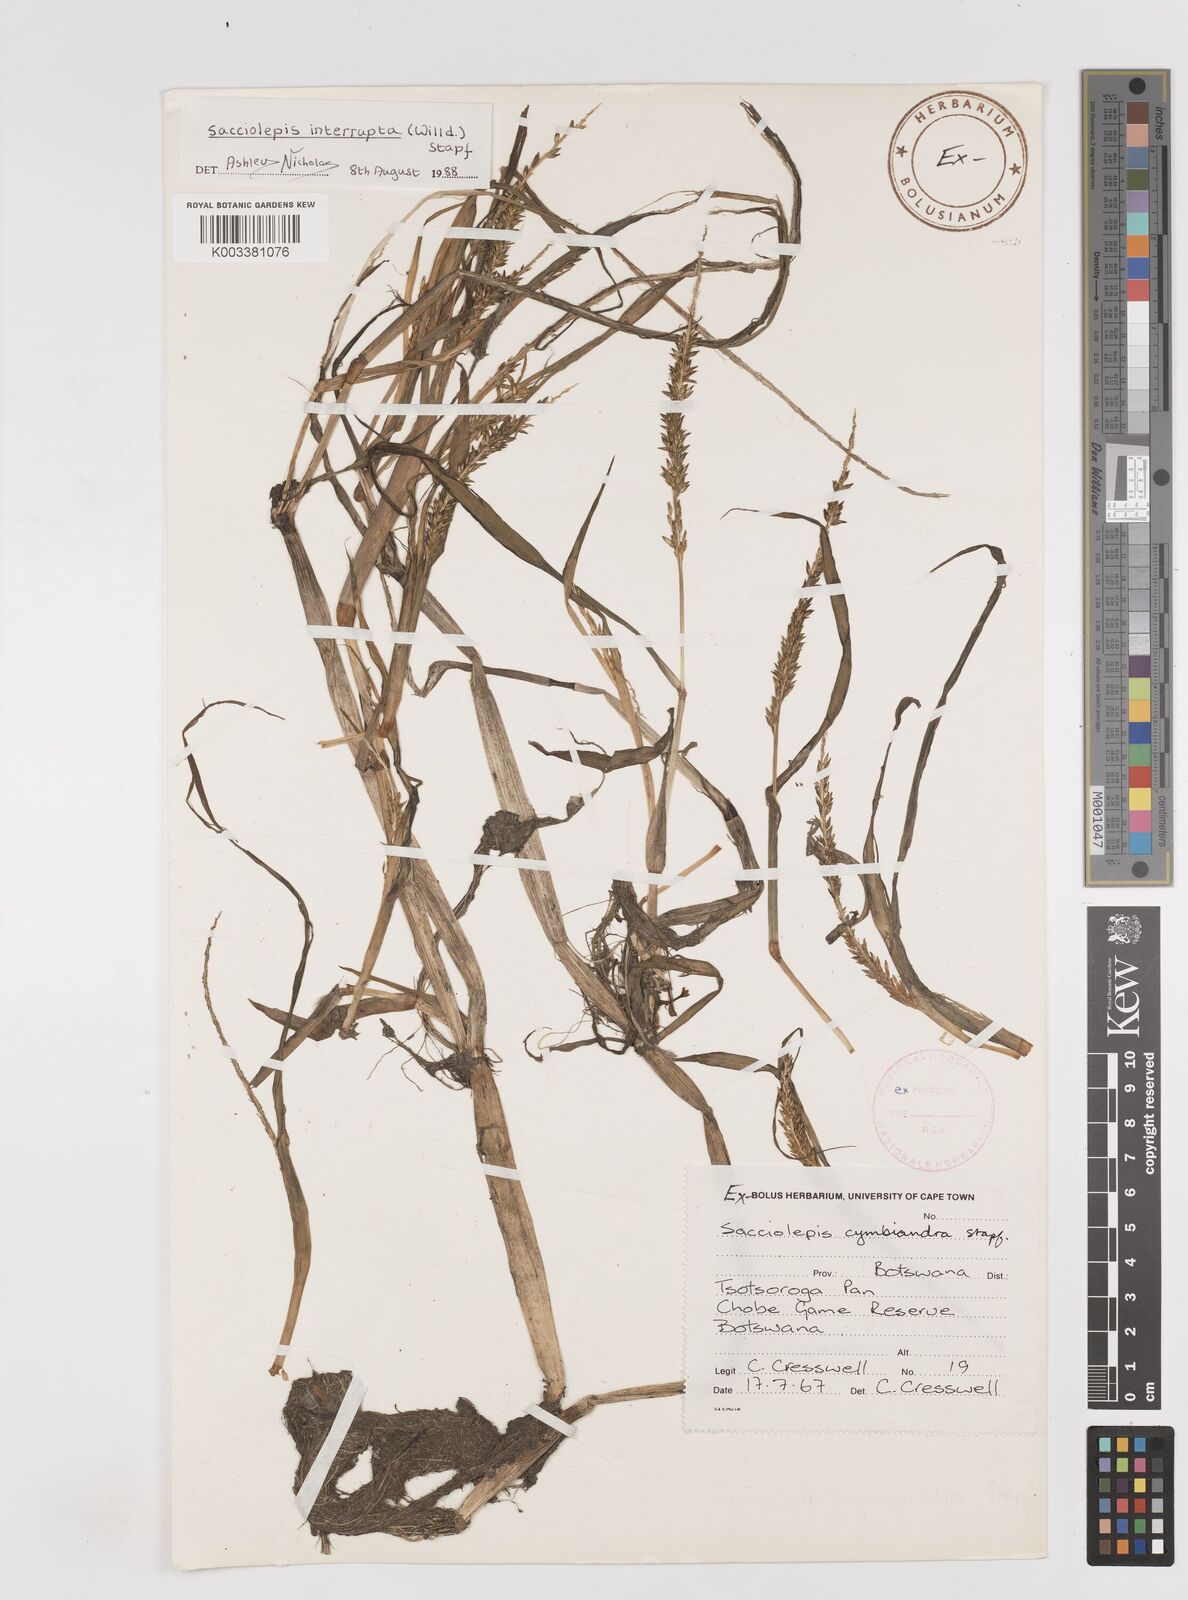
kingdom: Plantae
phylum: Tracheophyta
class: Liliopsida
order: Poales
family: Poaceae
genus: Sacciolepis
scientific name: Sacciolepis interrupta
